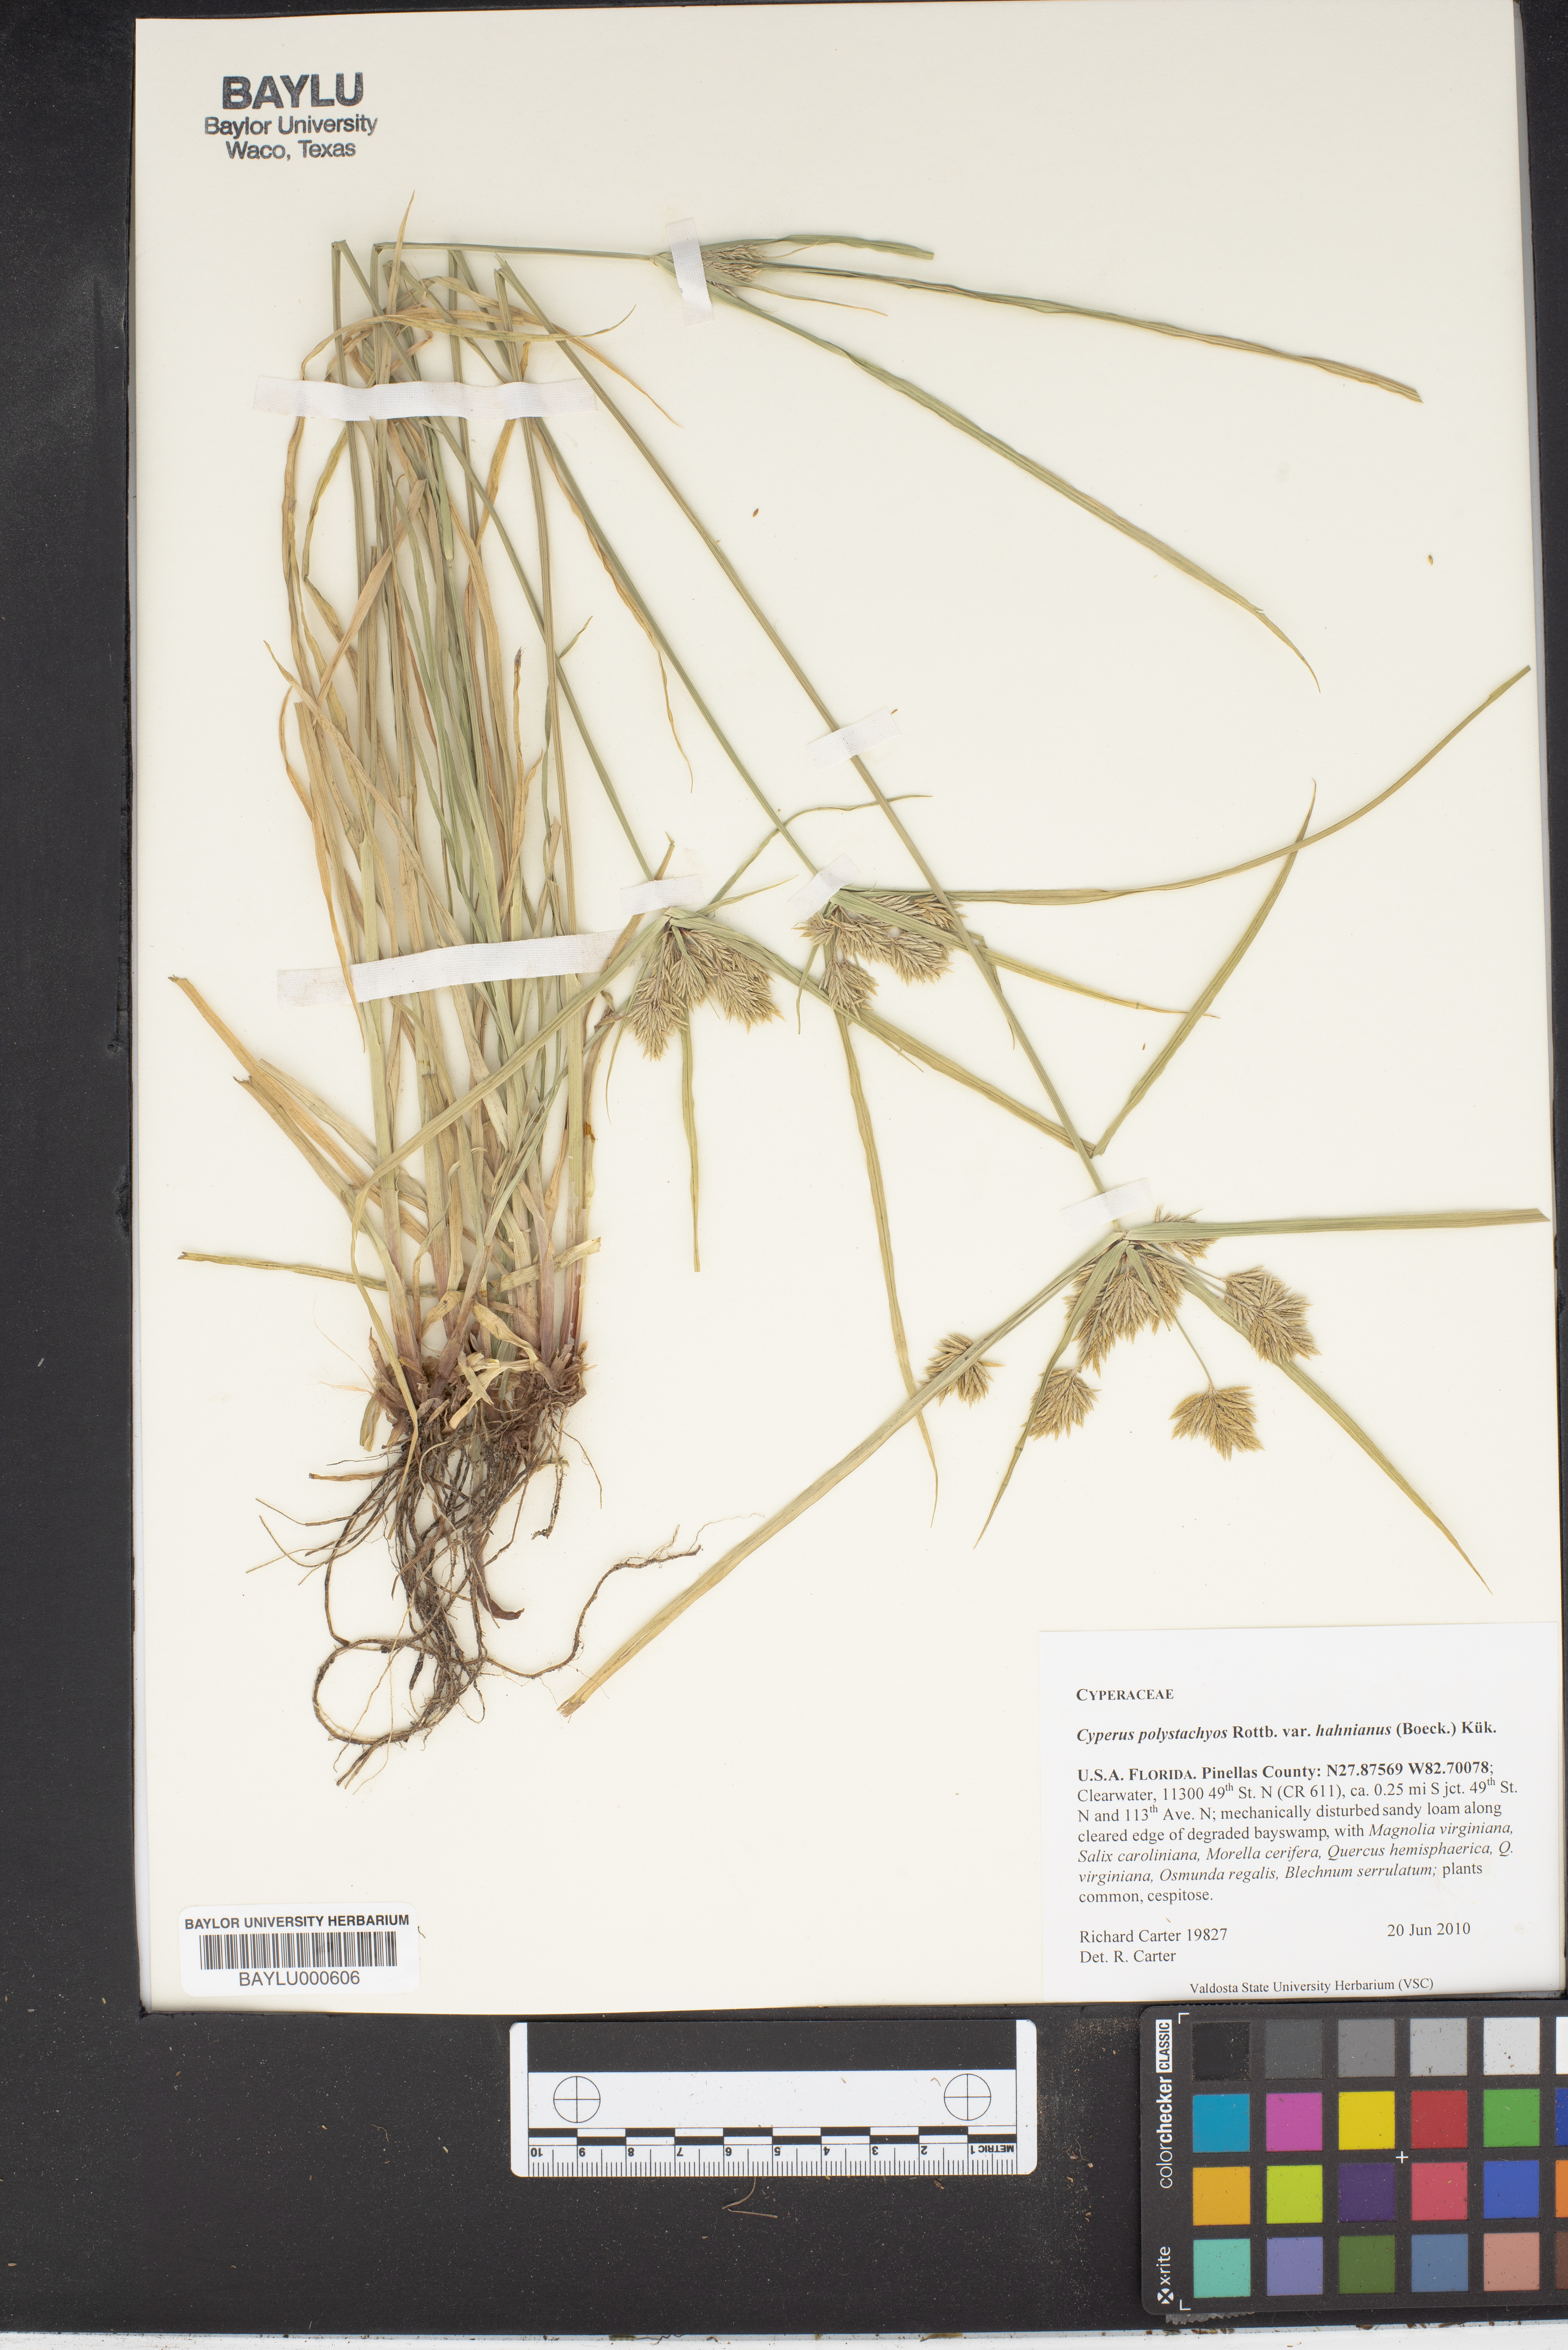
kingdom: Plantae
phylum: Tracheophyta
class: Liliopsida
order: Poales
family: Cyperaceae
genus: Cyperus
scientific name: Cyperus polystachyos
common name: Bunchy flat sedge
